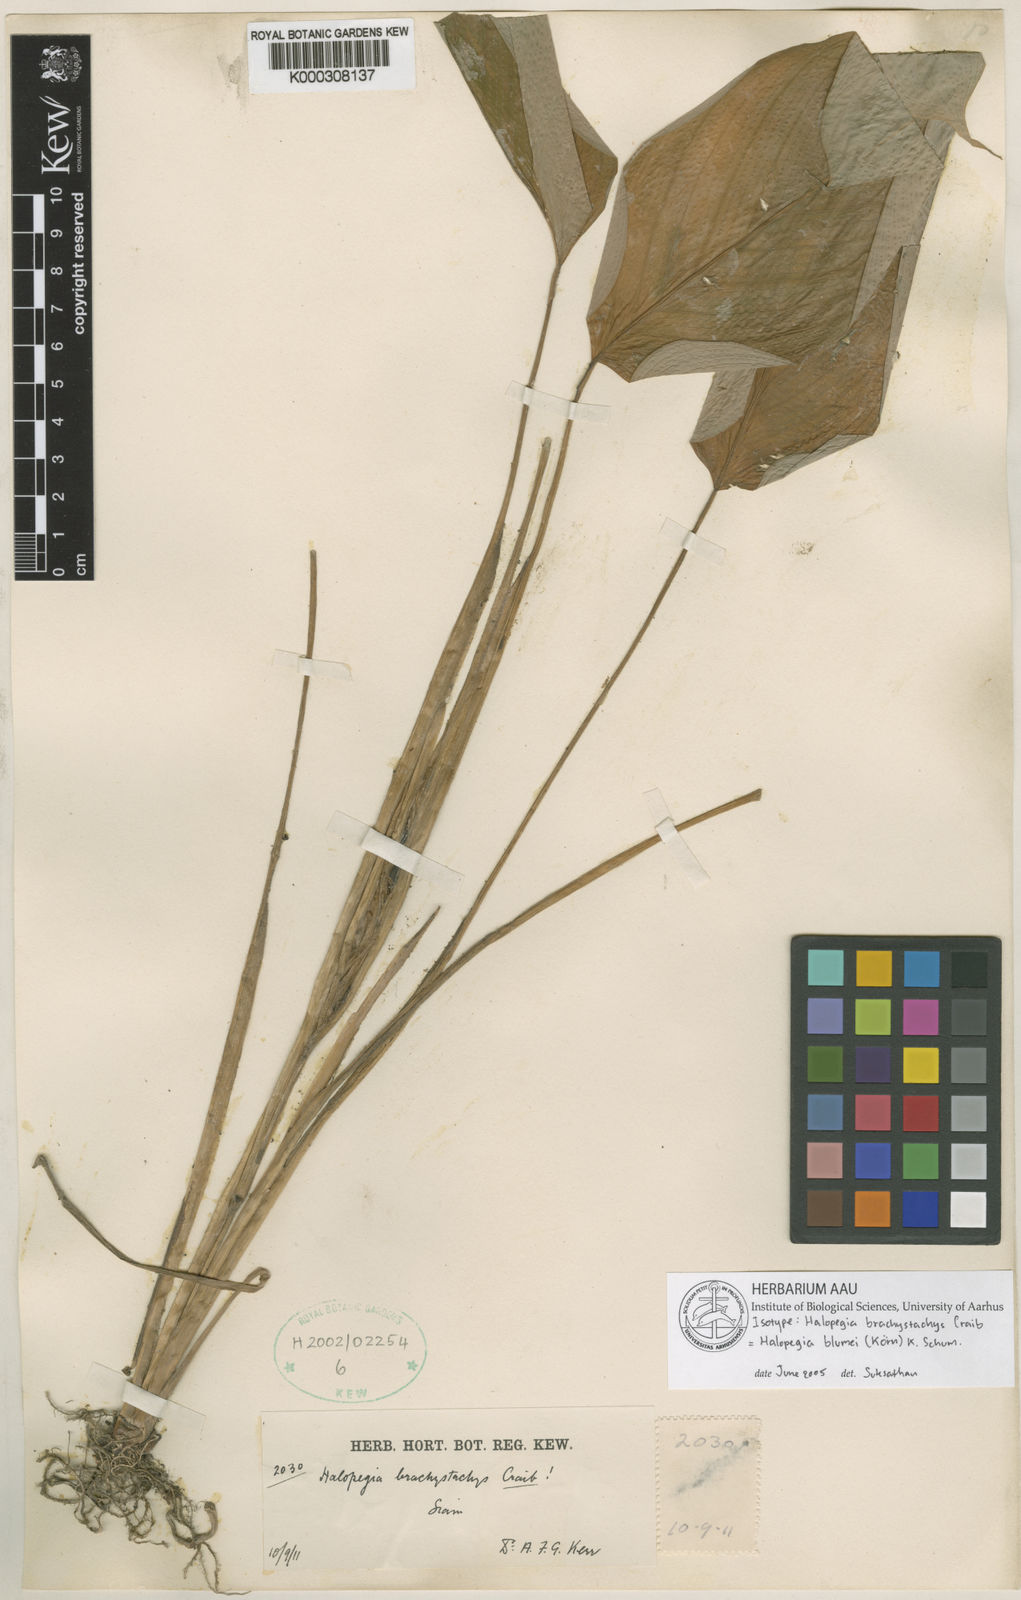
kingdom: Plantae
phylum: Tracheophyta
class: Liliopsida
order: Zingiberales
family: Marantaceae
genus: Halopegia
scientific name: Halopegia
